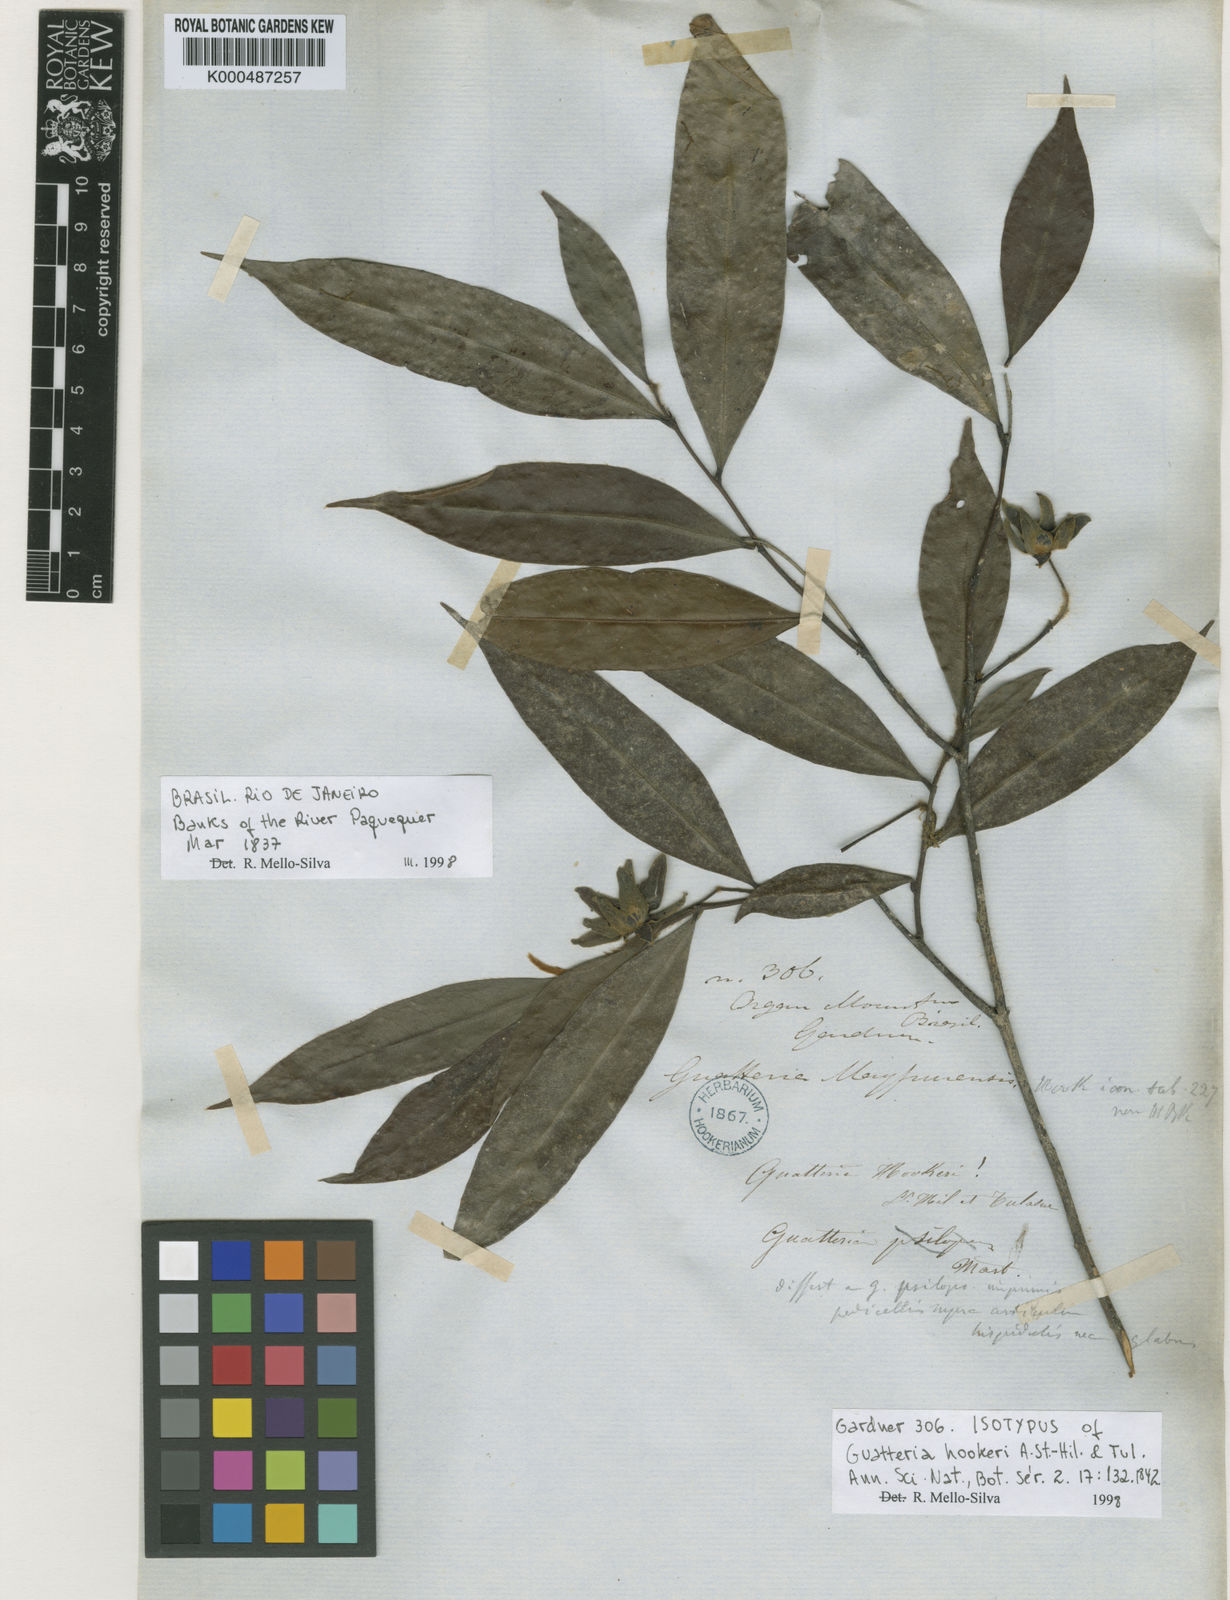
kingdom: Plantae
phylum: Tracheophyta
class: Magnoliopsida
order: Magnoliales
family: Annonaceae
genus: Guatteria
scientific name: Guatteria australis
